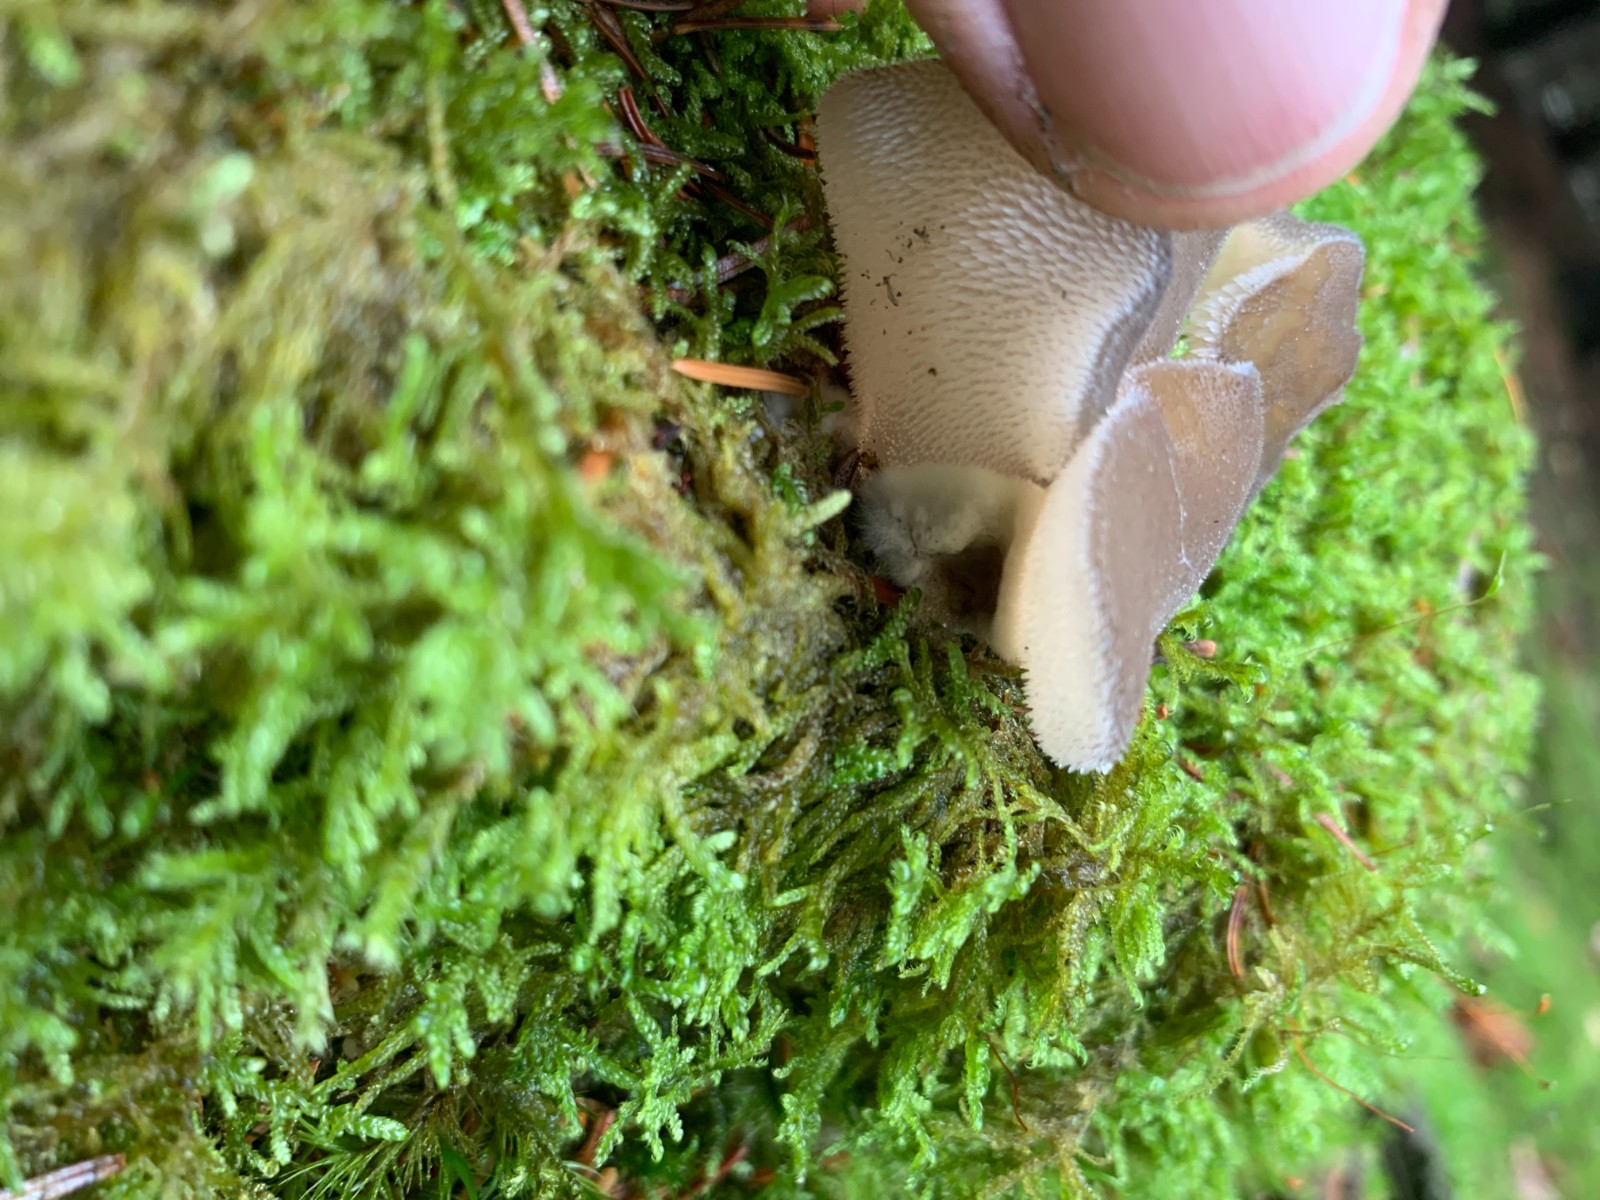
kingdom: Fungi
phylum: Basidiomycota
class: Agaricomycetes
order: Auriculariales
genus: Pseudohydnum
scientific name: Pseudohydnum gelatinosum
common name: bævretand
